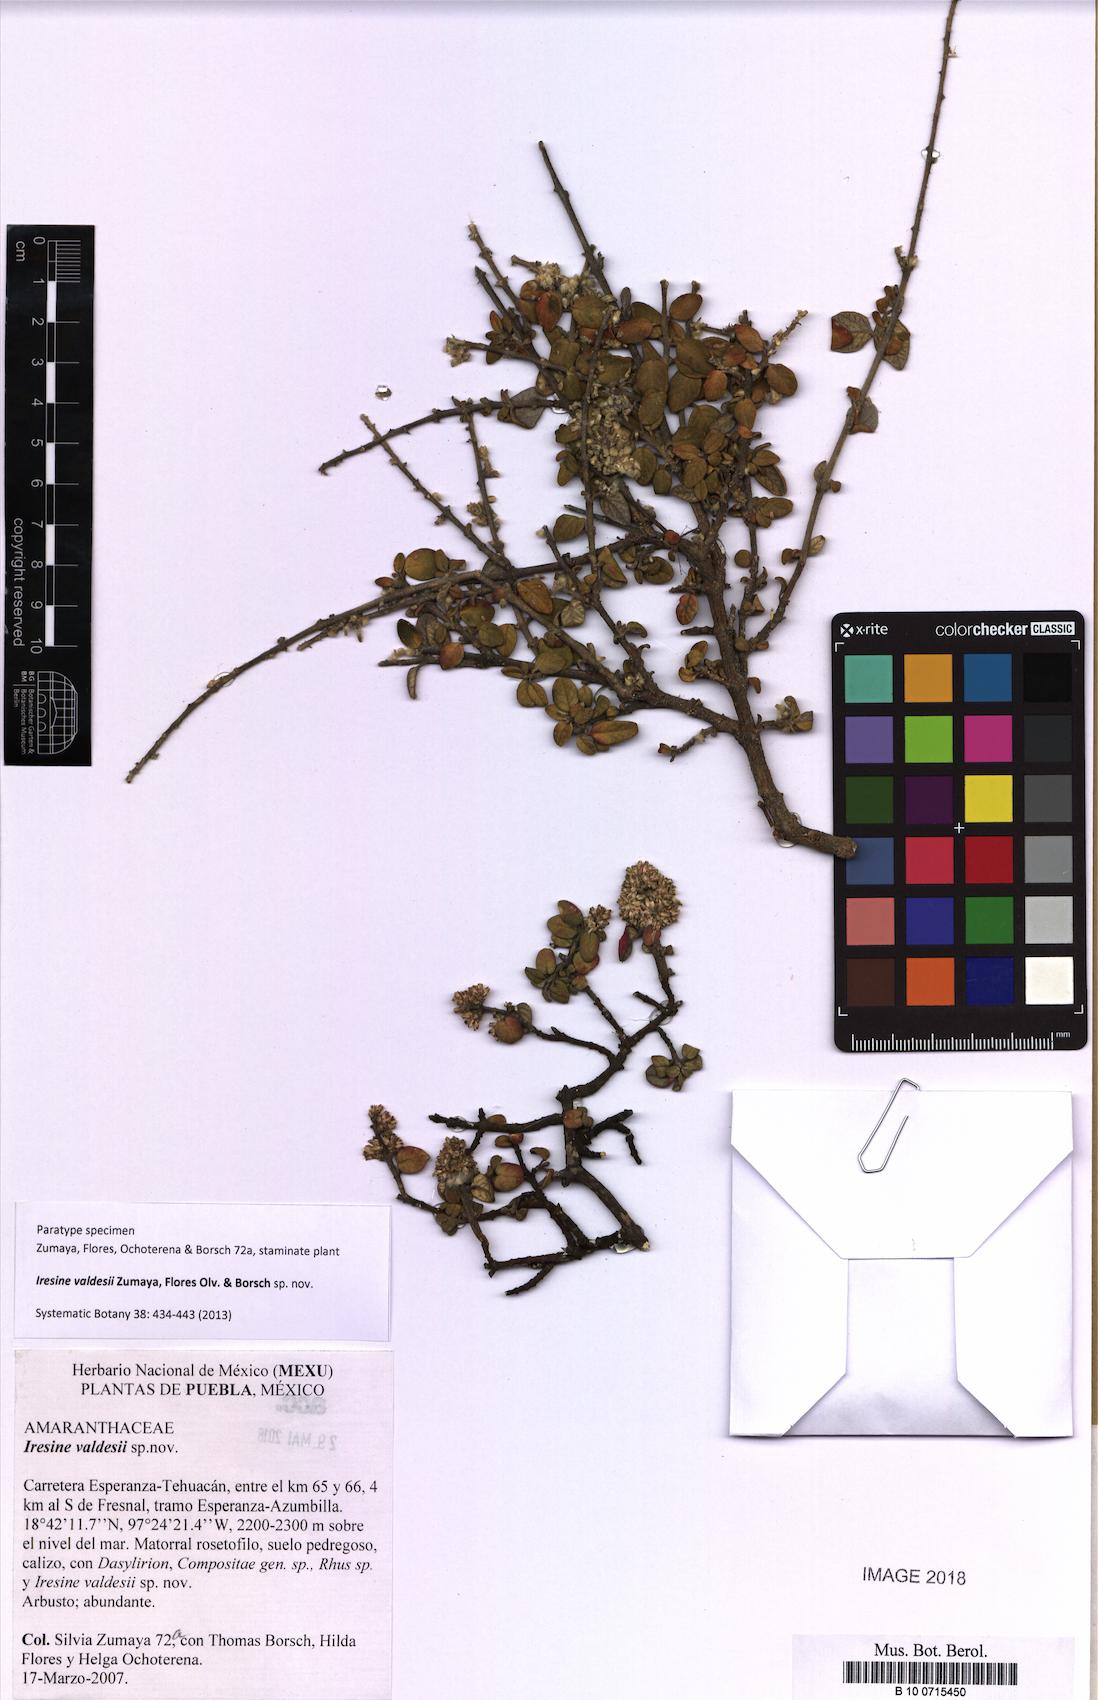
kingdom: Plantae
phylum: Tracheophyta
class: Magnoliopsida
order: Caryophyllales
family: Amaranthaceae
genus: Iresine
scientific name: Iresine valdesii
